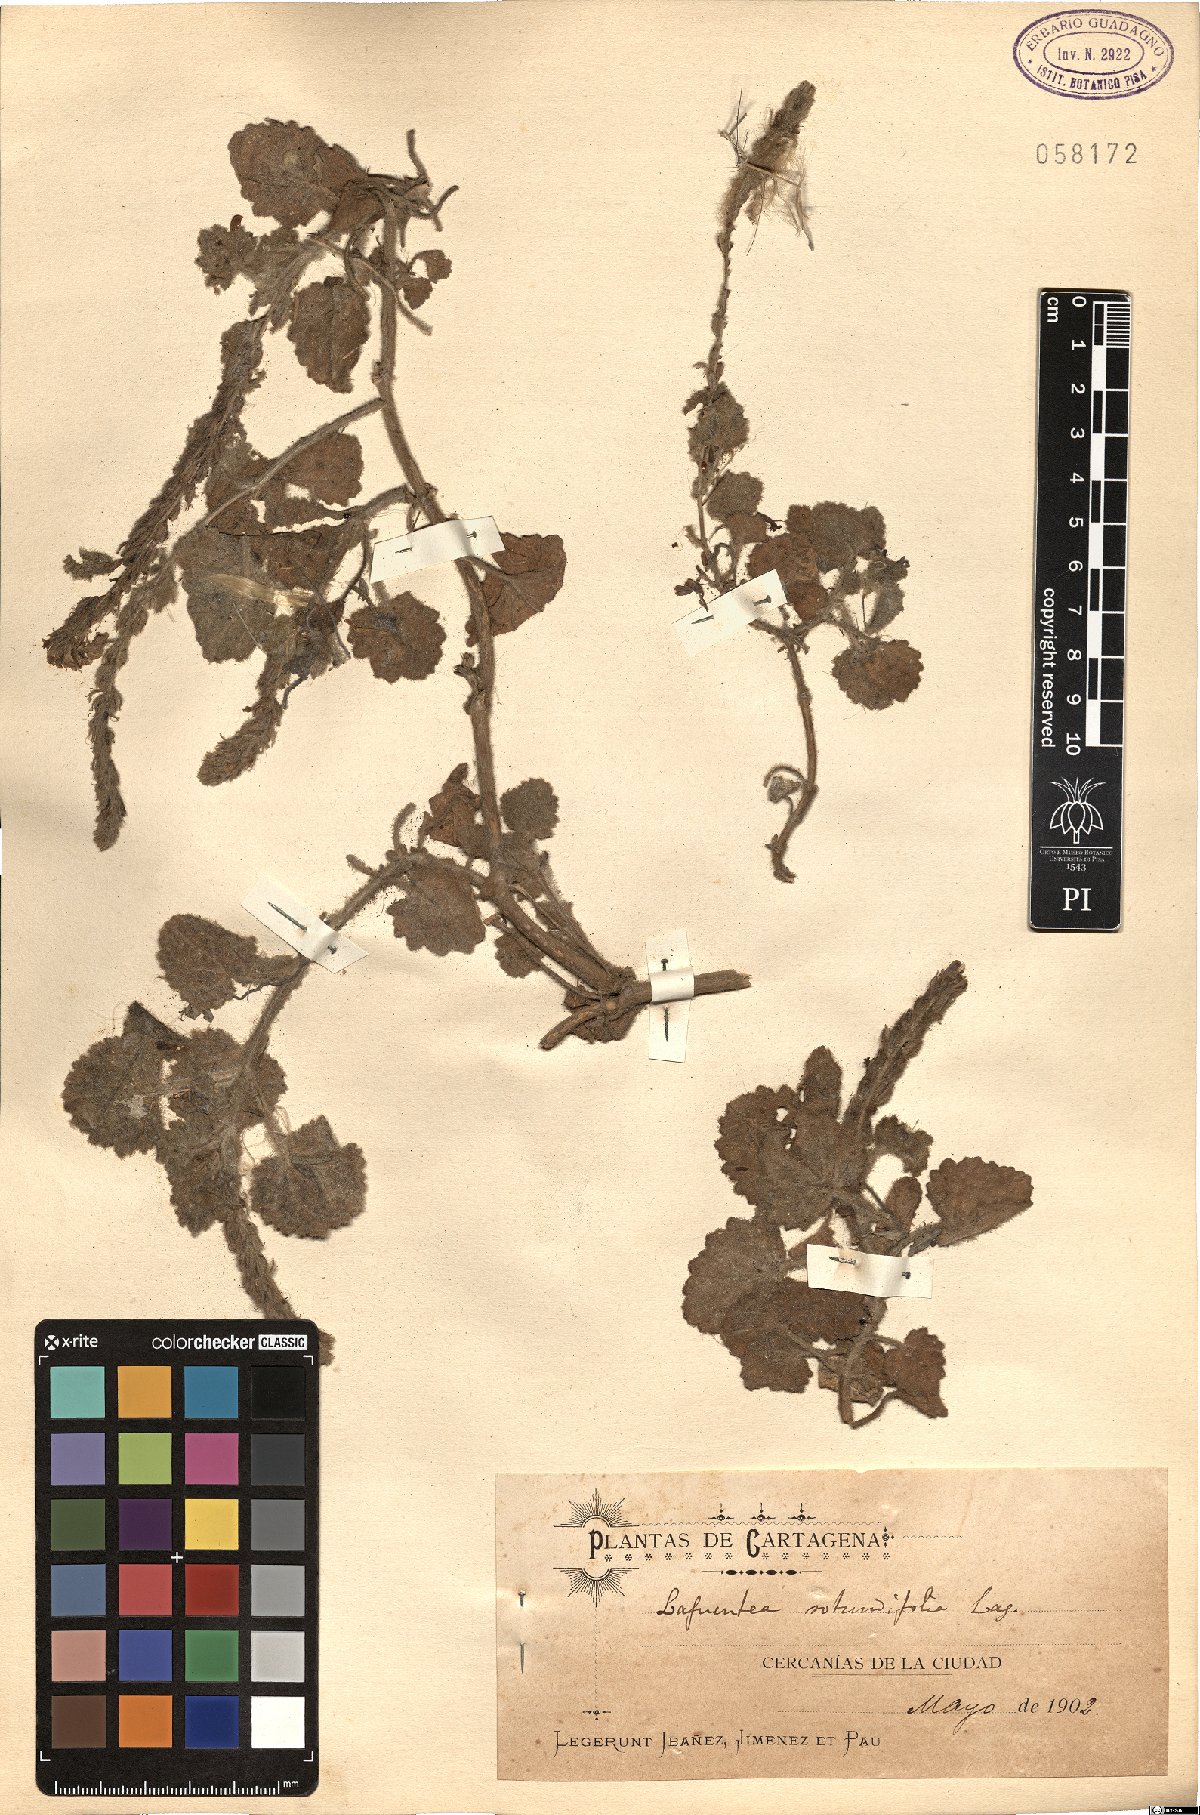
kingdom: Plantae
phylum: Tracheophyta
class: Magnoliopsida
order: Lamiales
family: Plantaginaceae
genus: Lafuentea
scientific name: Lafuentea rotundifolia
